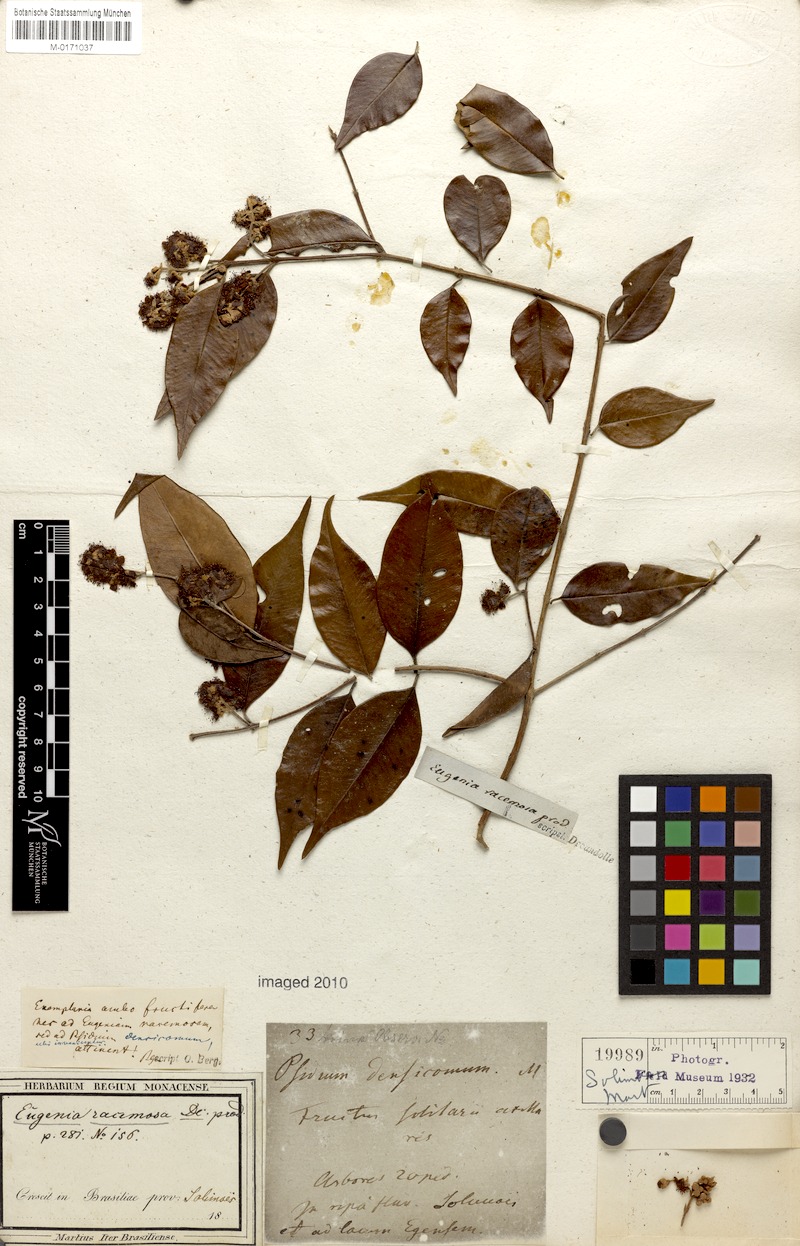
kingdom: Plantae
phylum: Tracheophyta
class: Magnoliopsida
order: Myrtales
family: Myrtaceae
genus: Psidium
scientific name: Psidium densicomum
